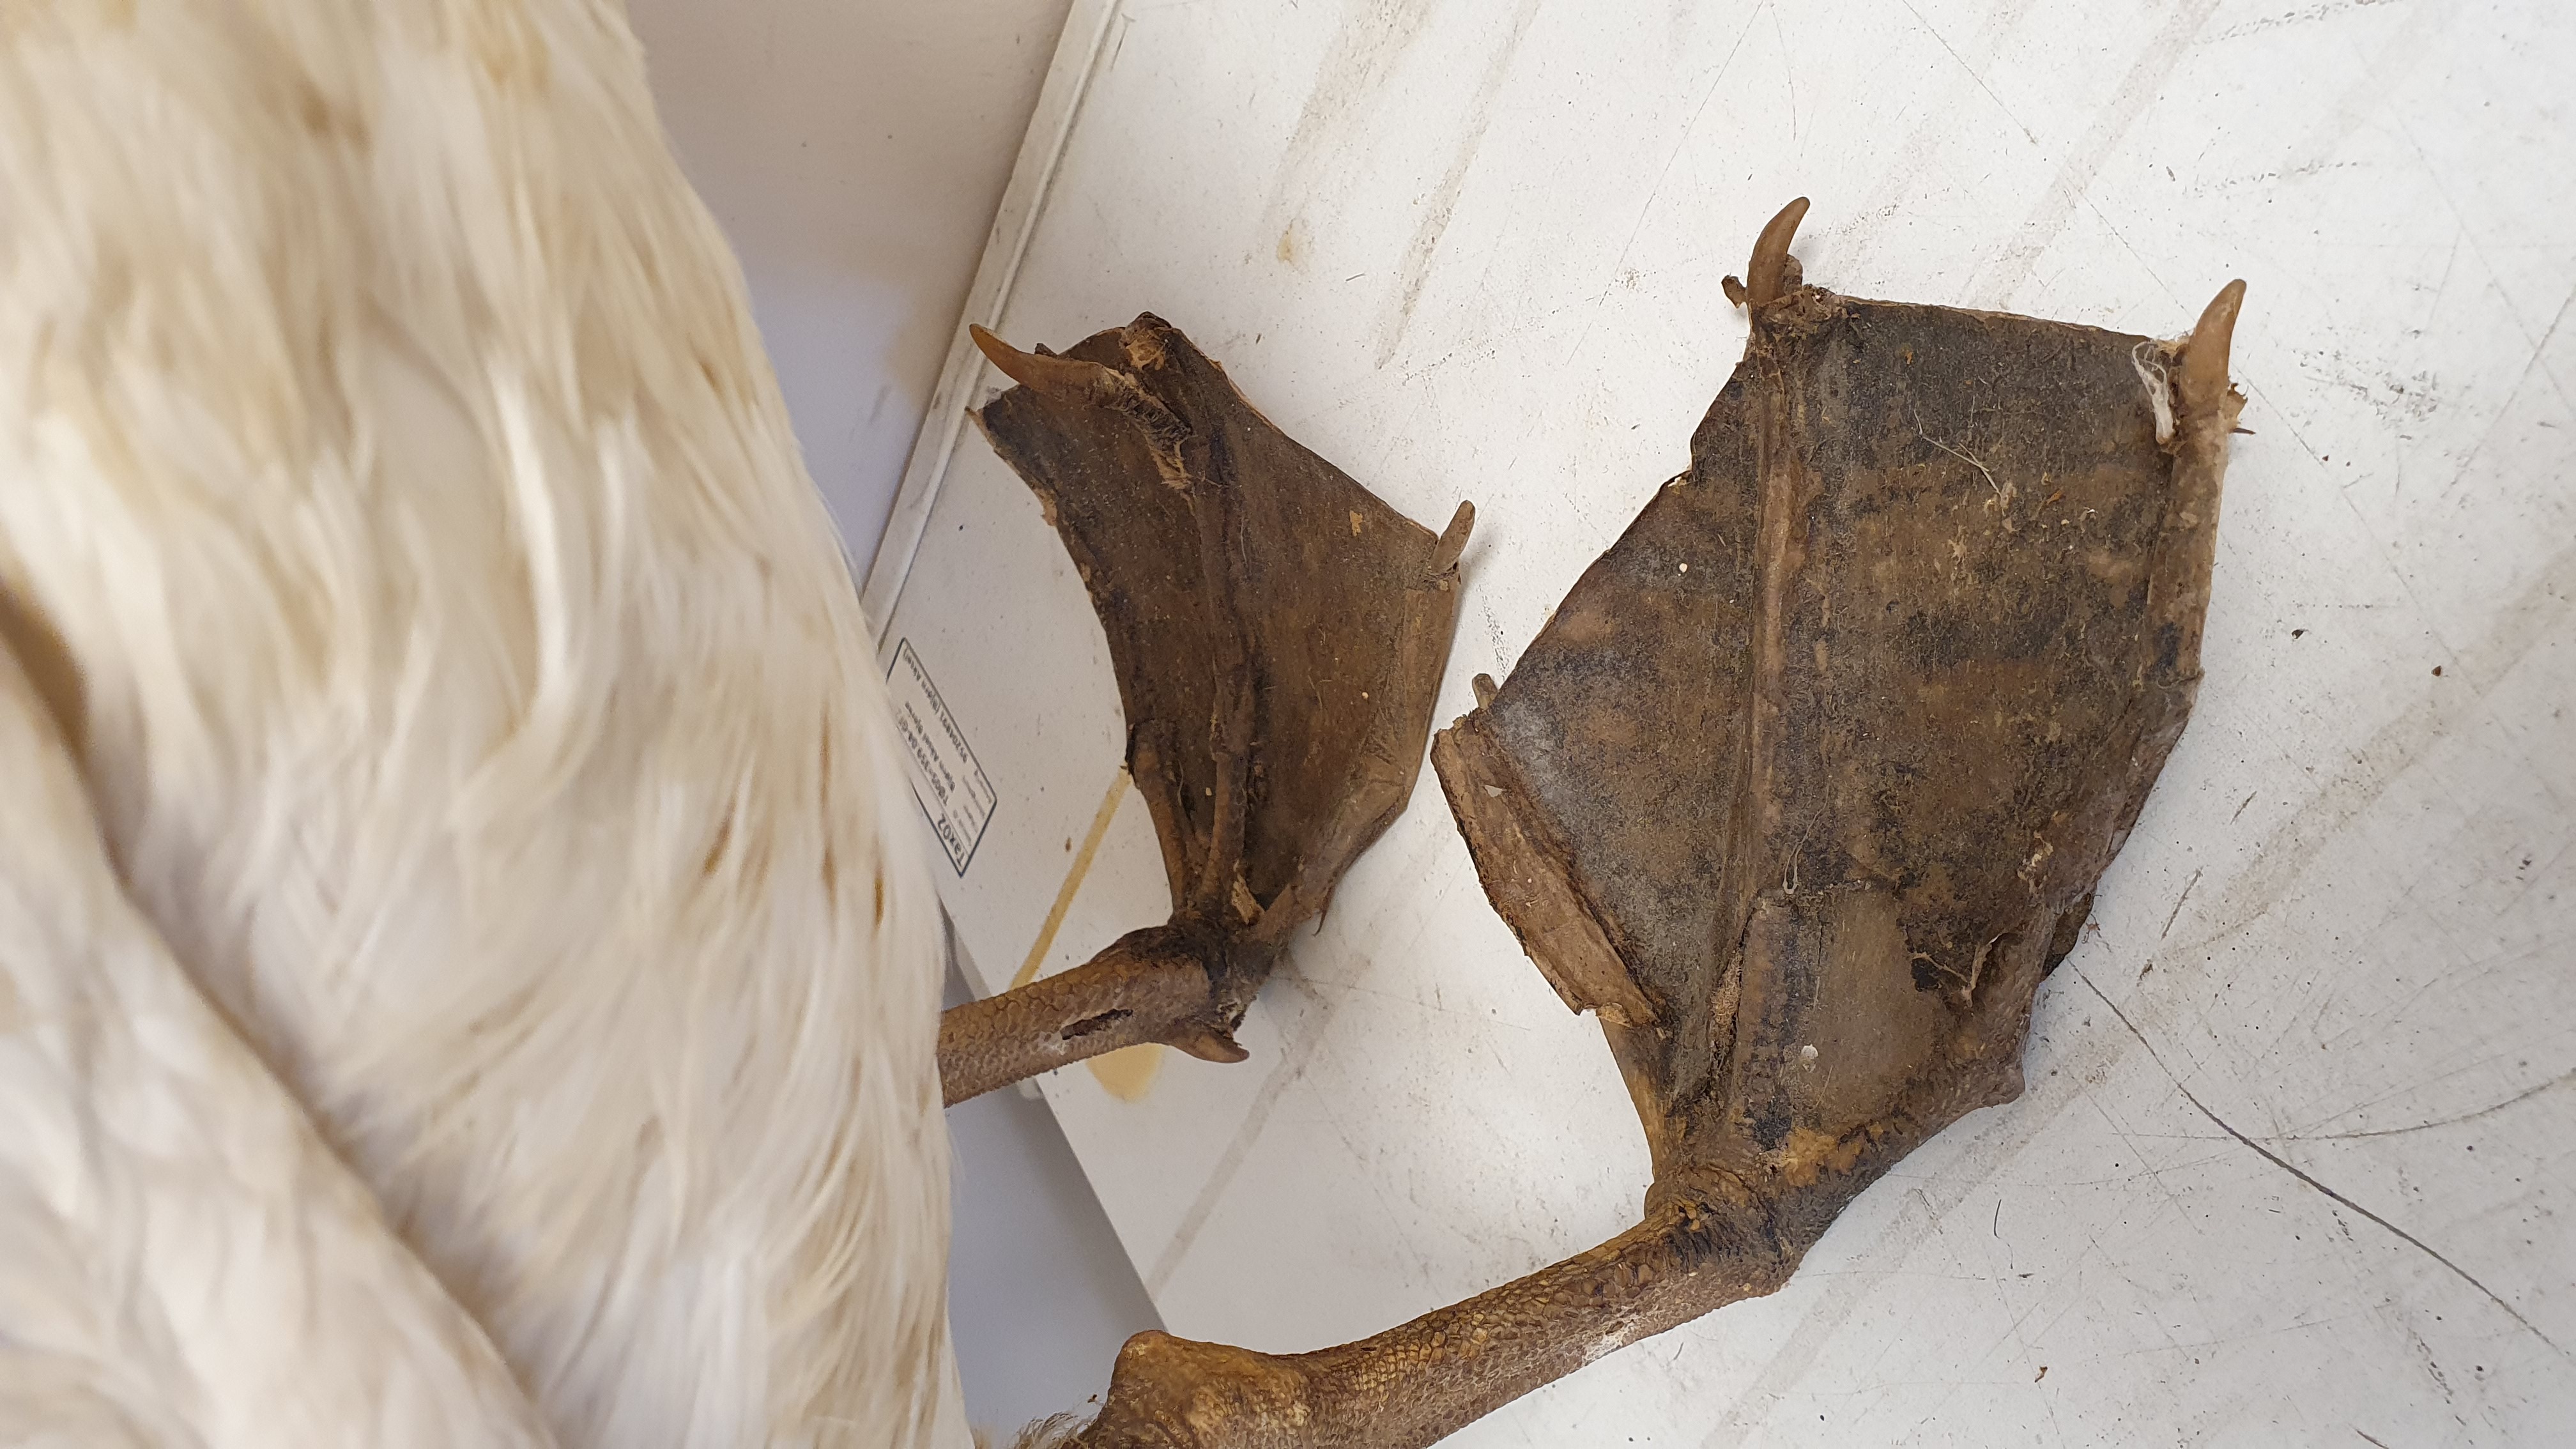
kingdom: Animalia
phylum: Chordata
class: Aves
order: Procellariiformes
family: Procellariidae
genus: Macronectes
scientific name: Macronectes giganteus
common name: Southern giant petrel
